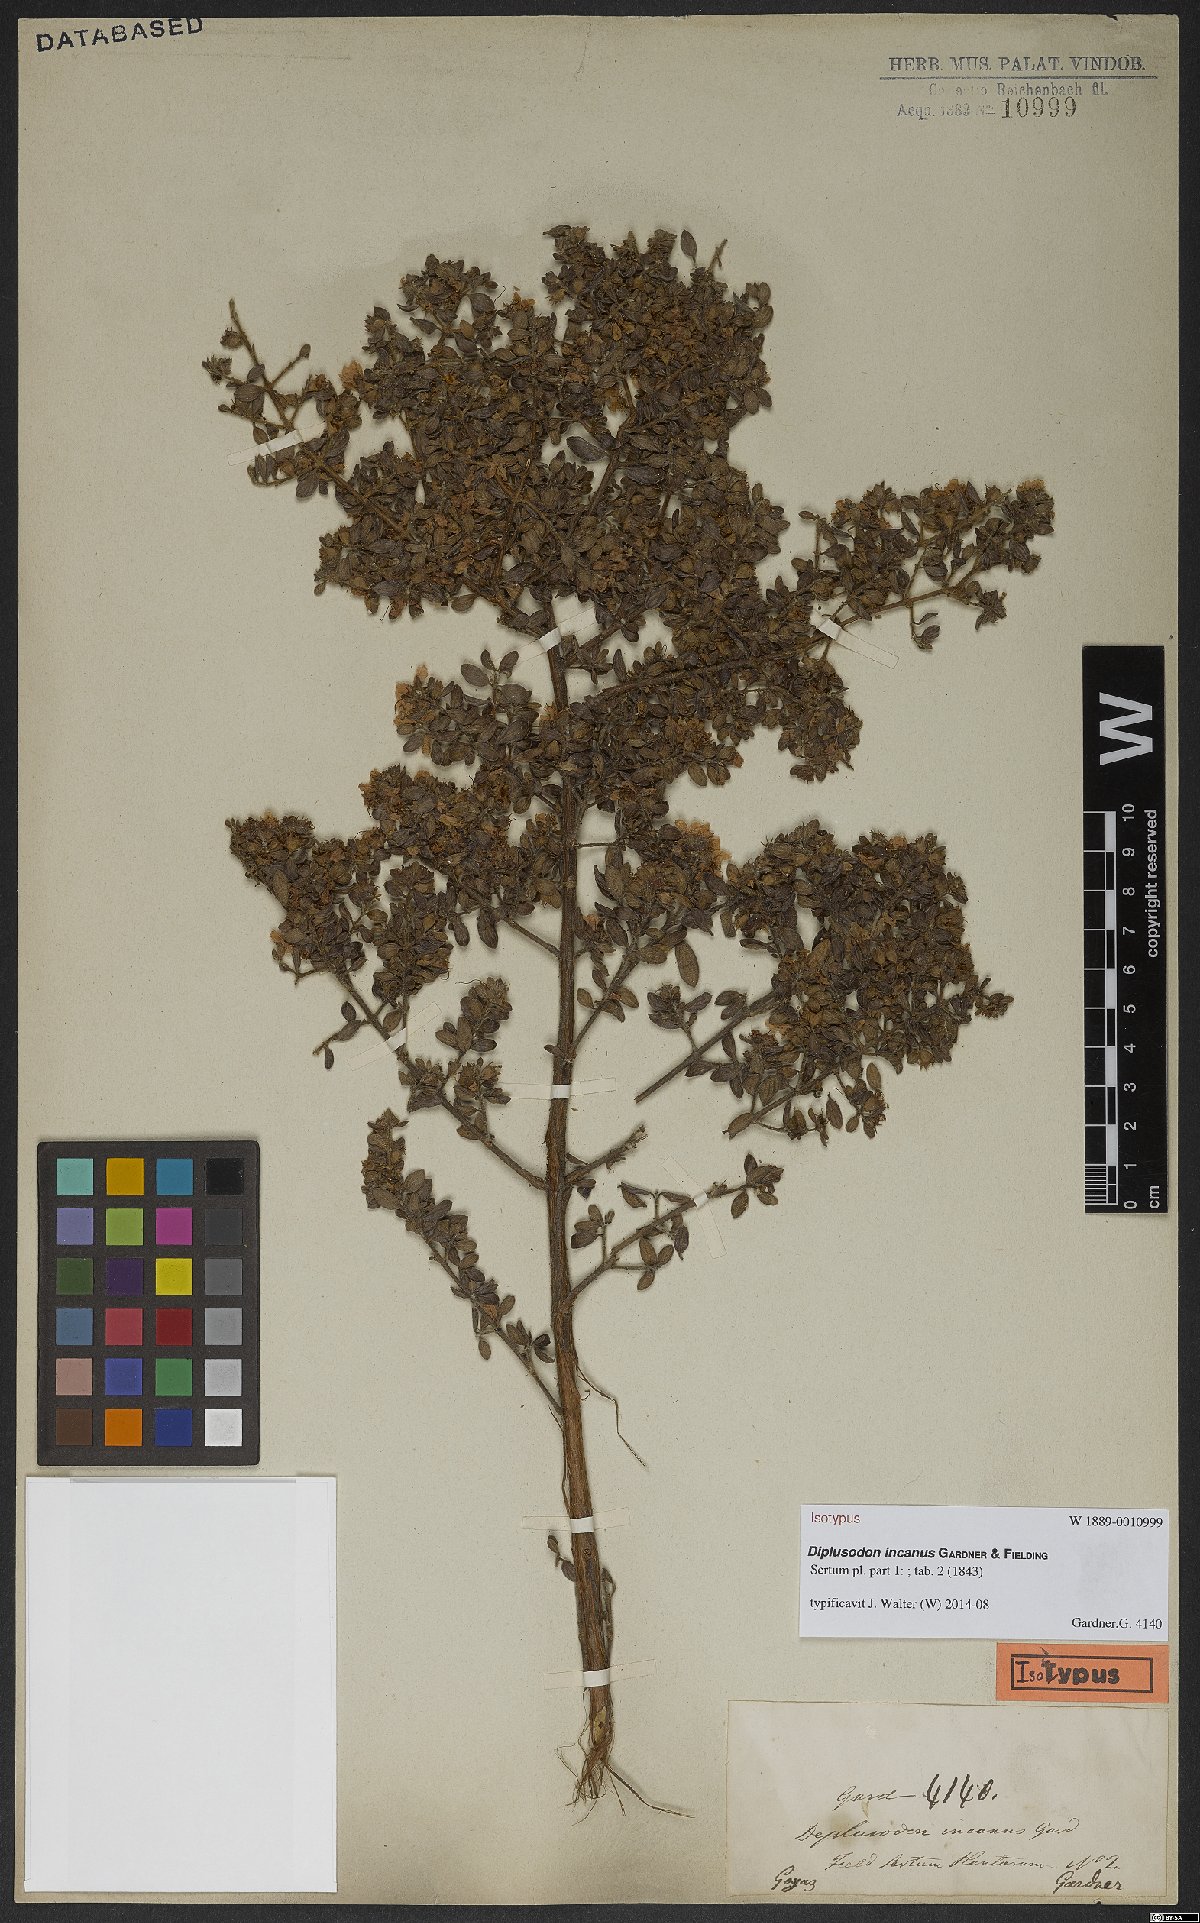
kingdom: Plantae
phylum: Tracheophyta
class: Magnoliopsida
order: Myrtales
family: Lythraceae
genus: Diplusodon
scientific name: Diplusodon incanus
